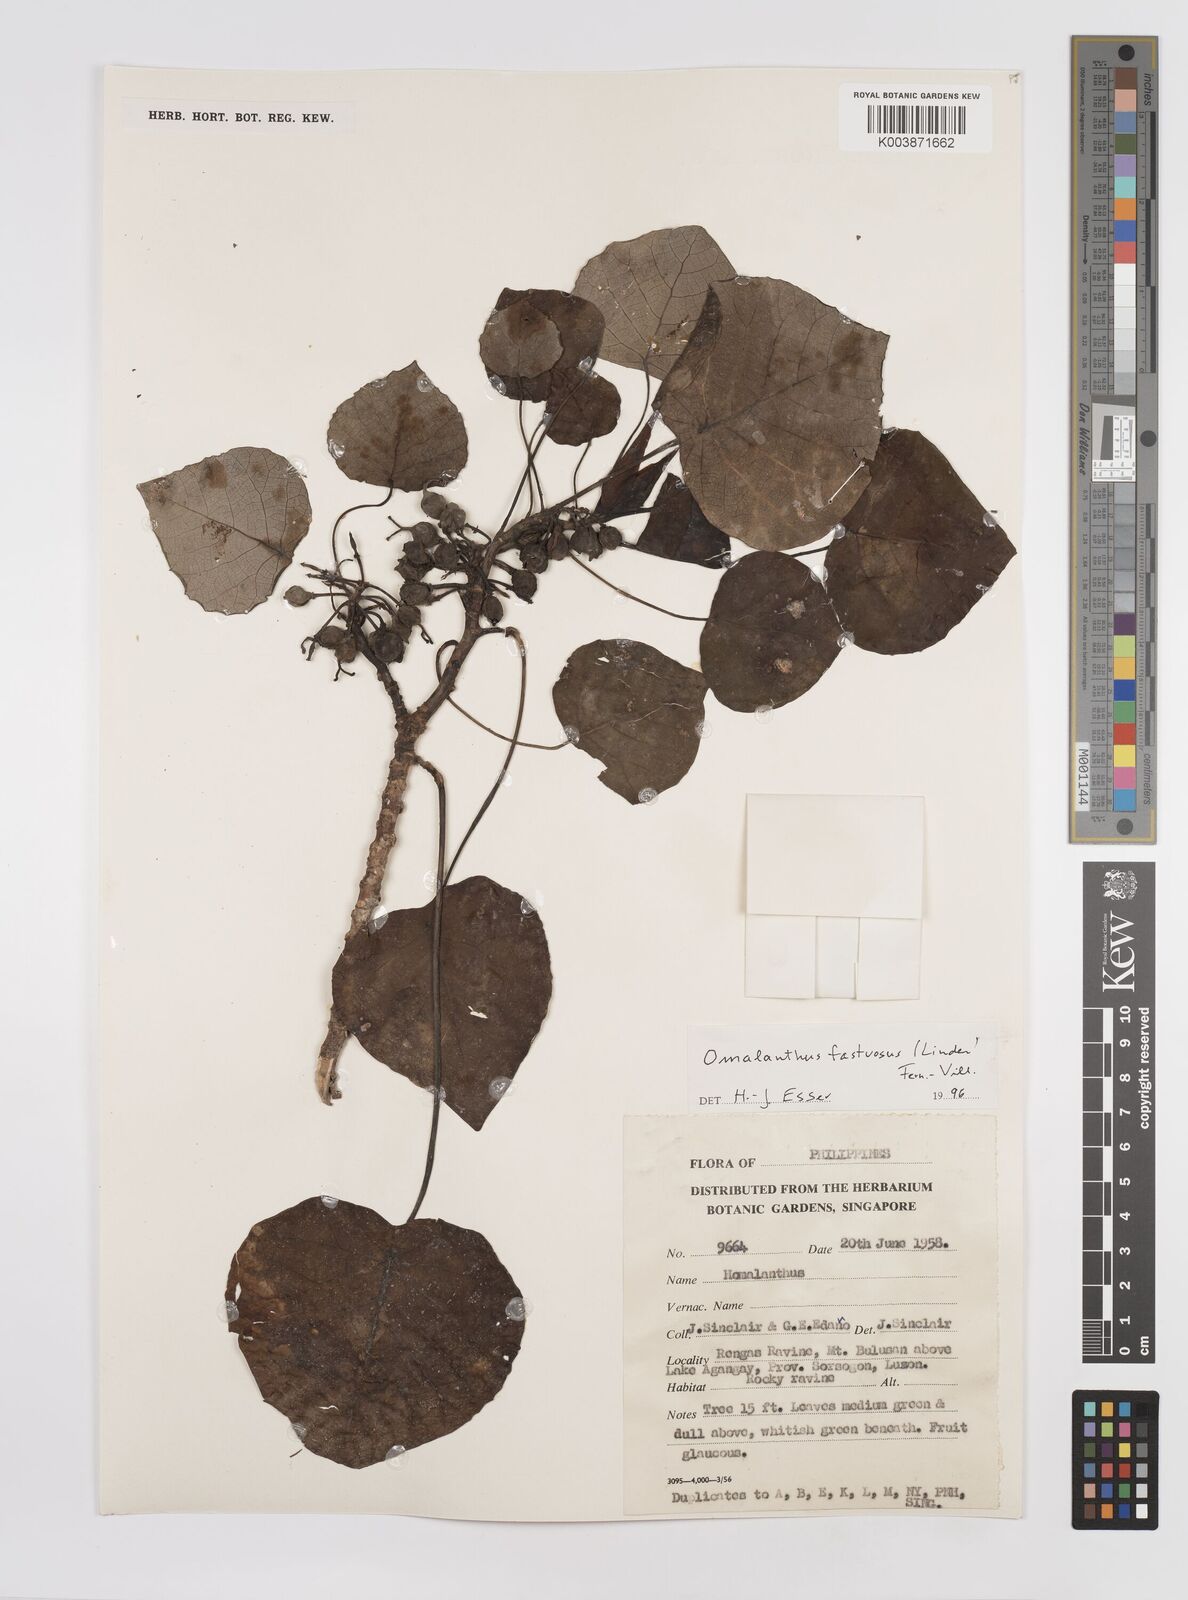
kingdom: Plantae
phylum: Tracheophyta
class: Magnoliopsida
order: Malpighiales
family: Euphorbiaceae
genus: Homalanthus
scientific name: Homalanthus fastuosus
